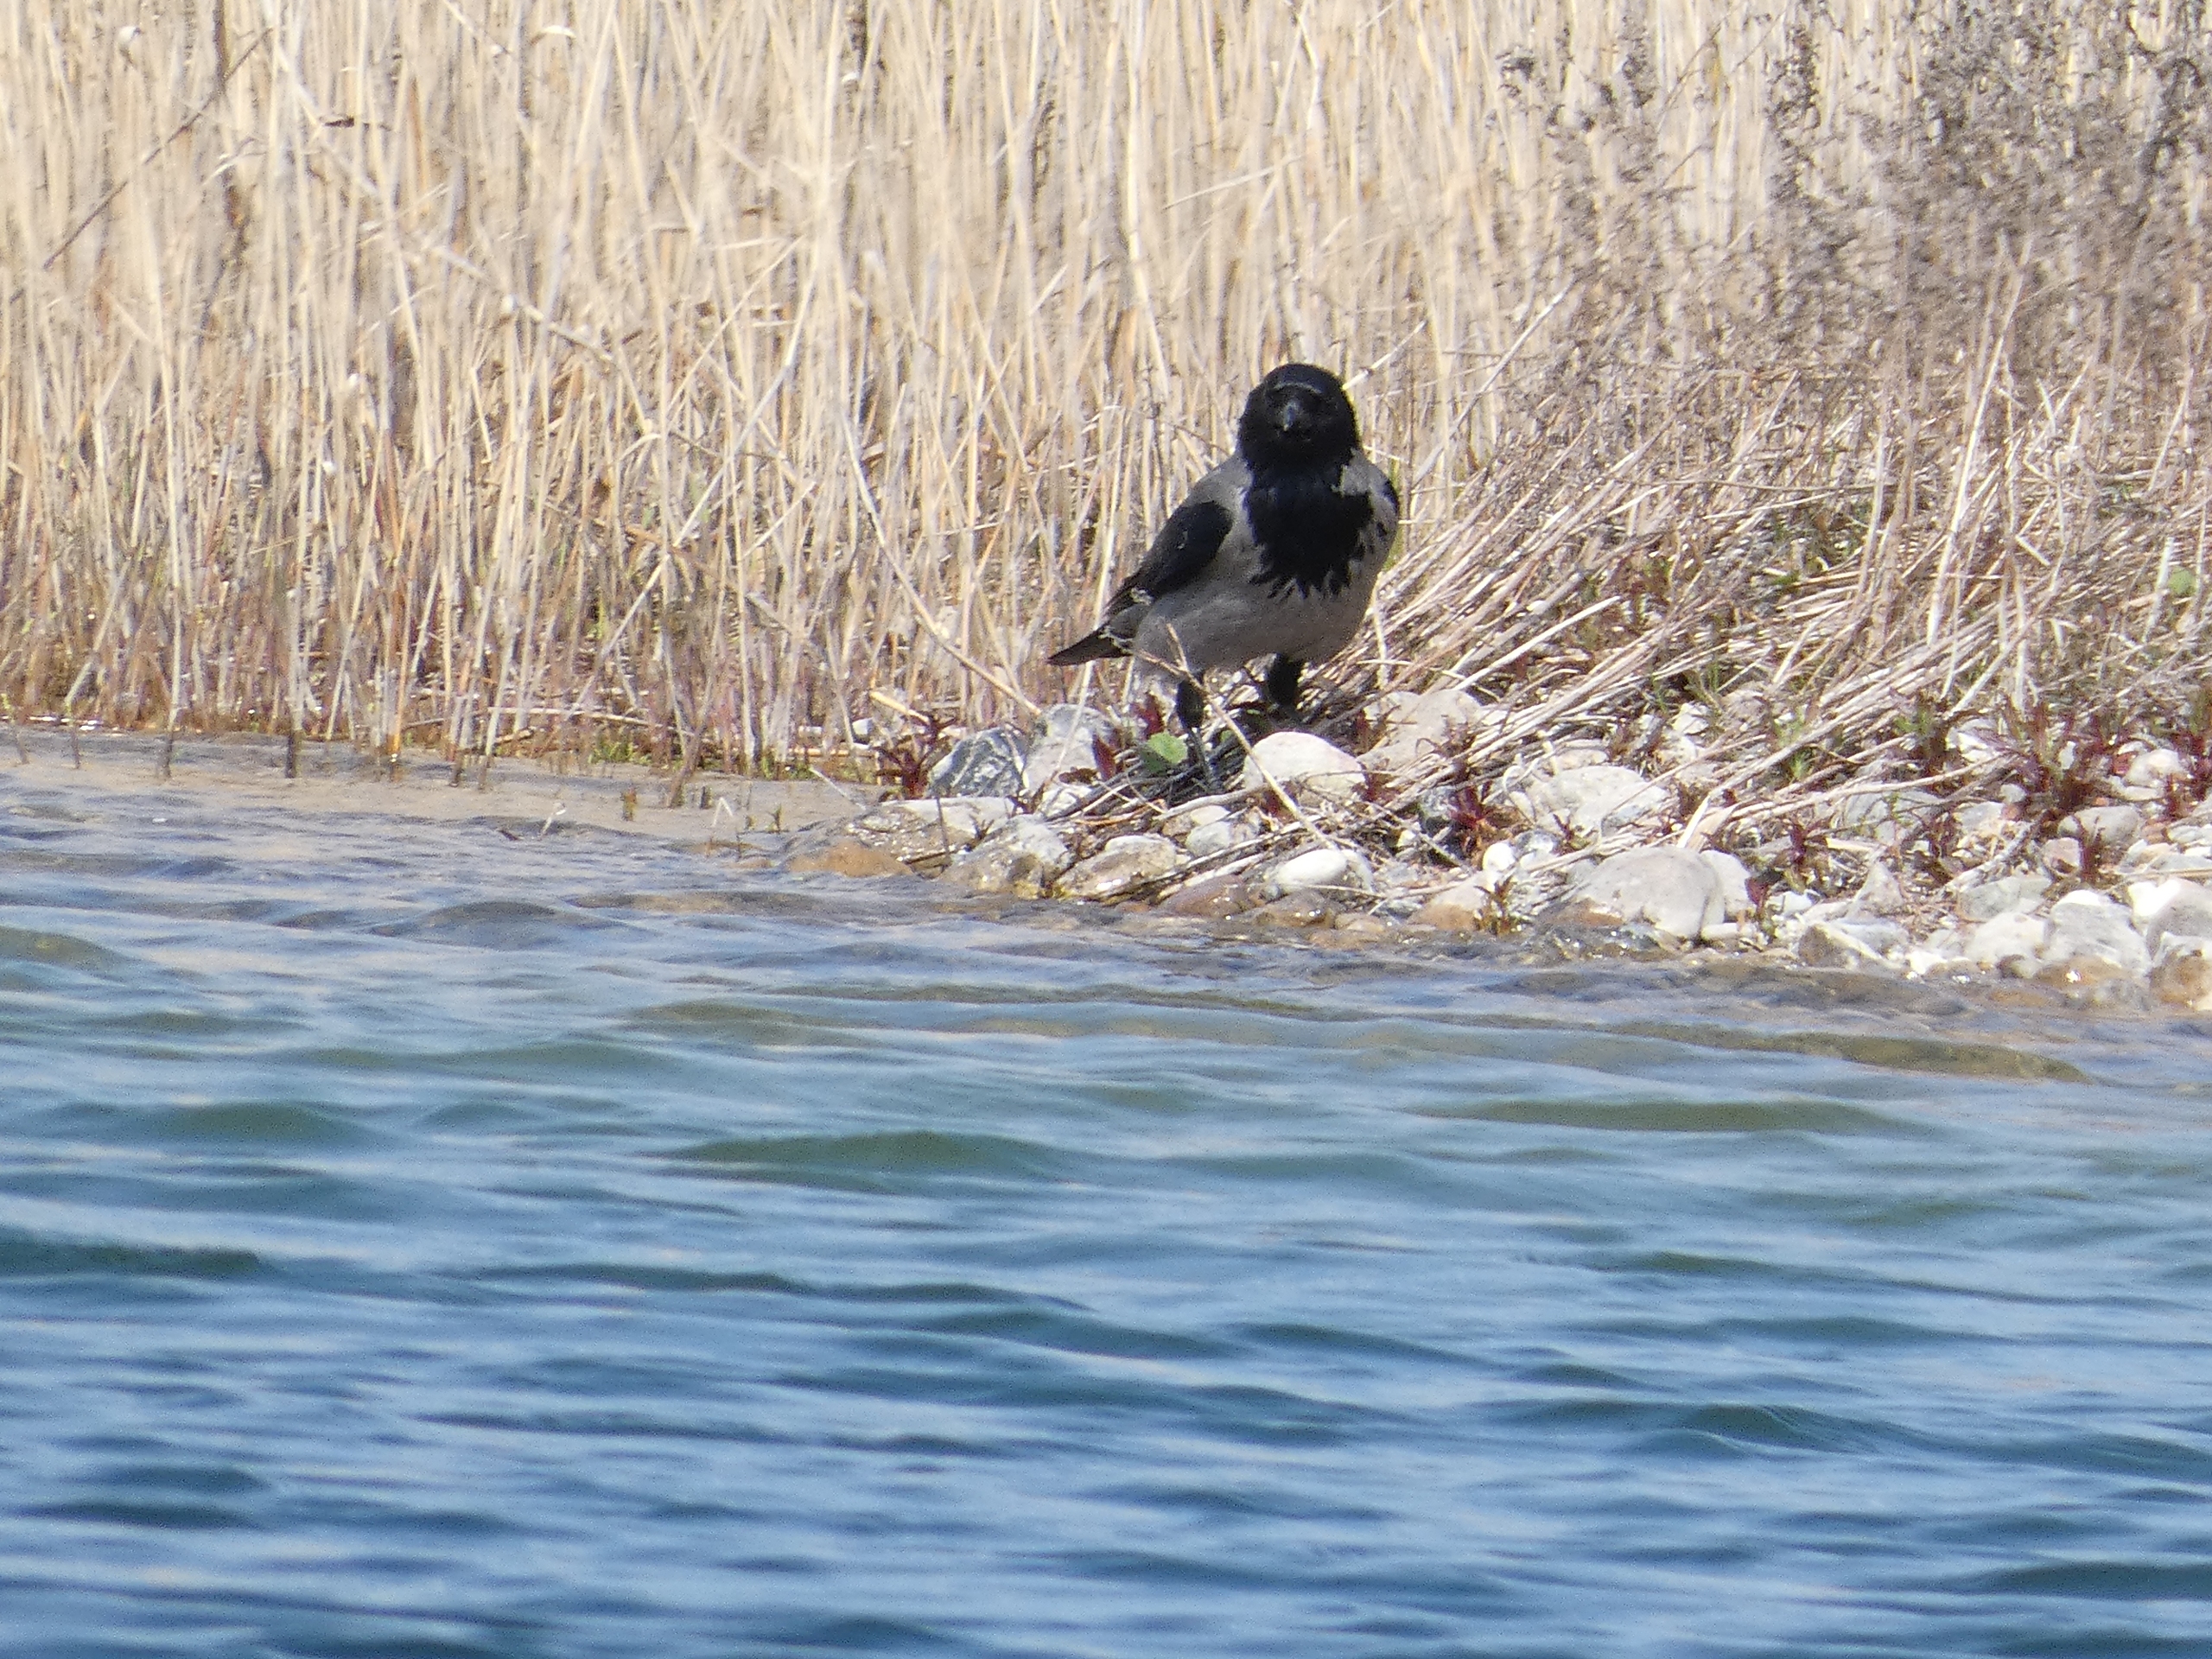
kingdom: Animalia
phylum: Chordata
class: Aves
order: Passeriformes
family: Corvidae
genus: Corvus
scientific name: Corvus cornix
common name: Gråkrage
